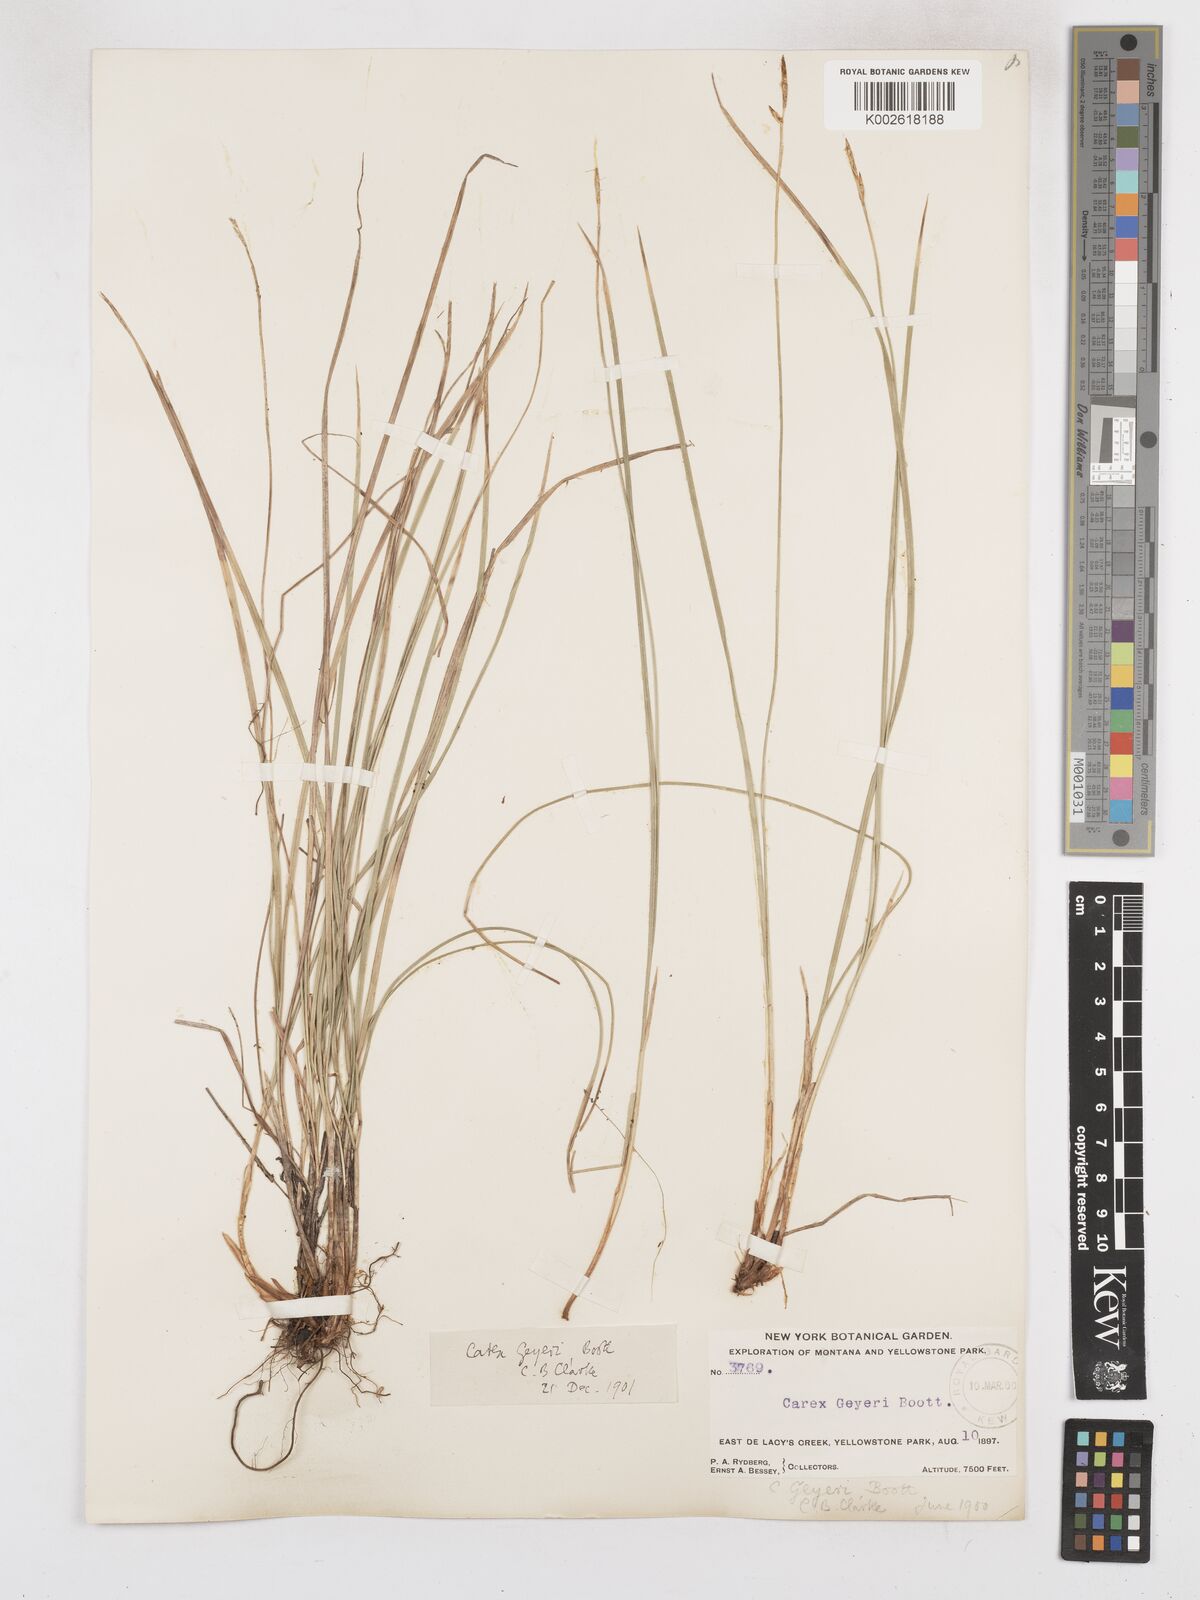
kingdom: Plantae
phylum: Tracheophyta
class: Liliopsida
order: Poales
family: Cyperaceae
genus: Carex
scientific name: Carex geyeri
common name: Elk sedge
